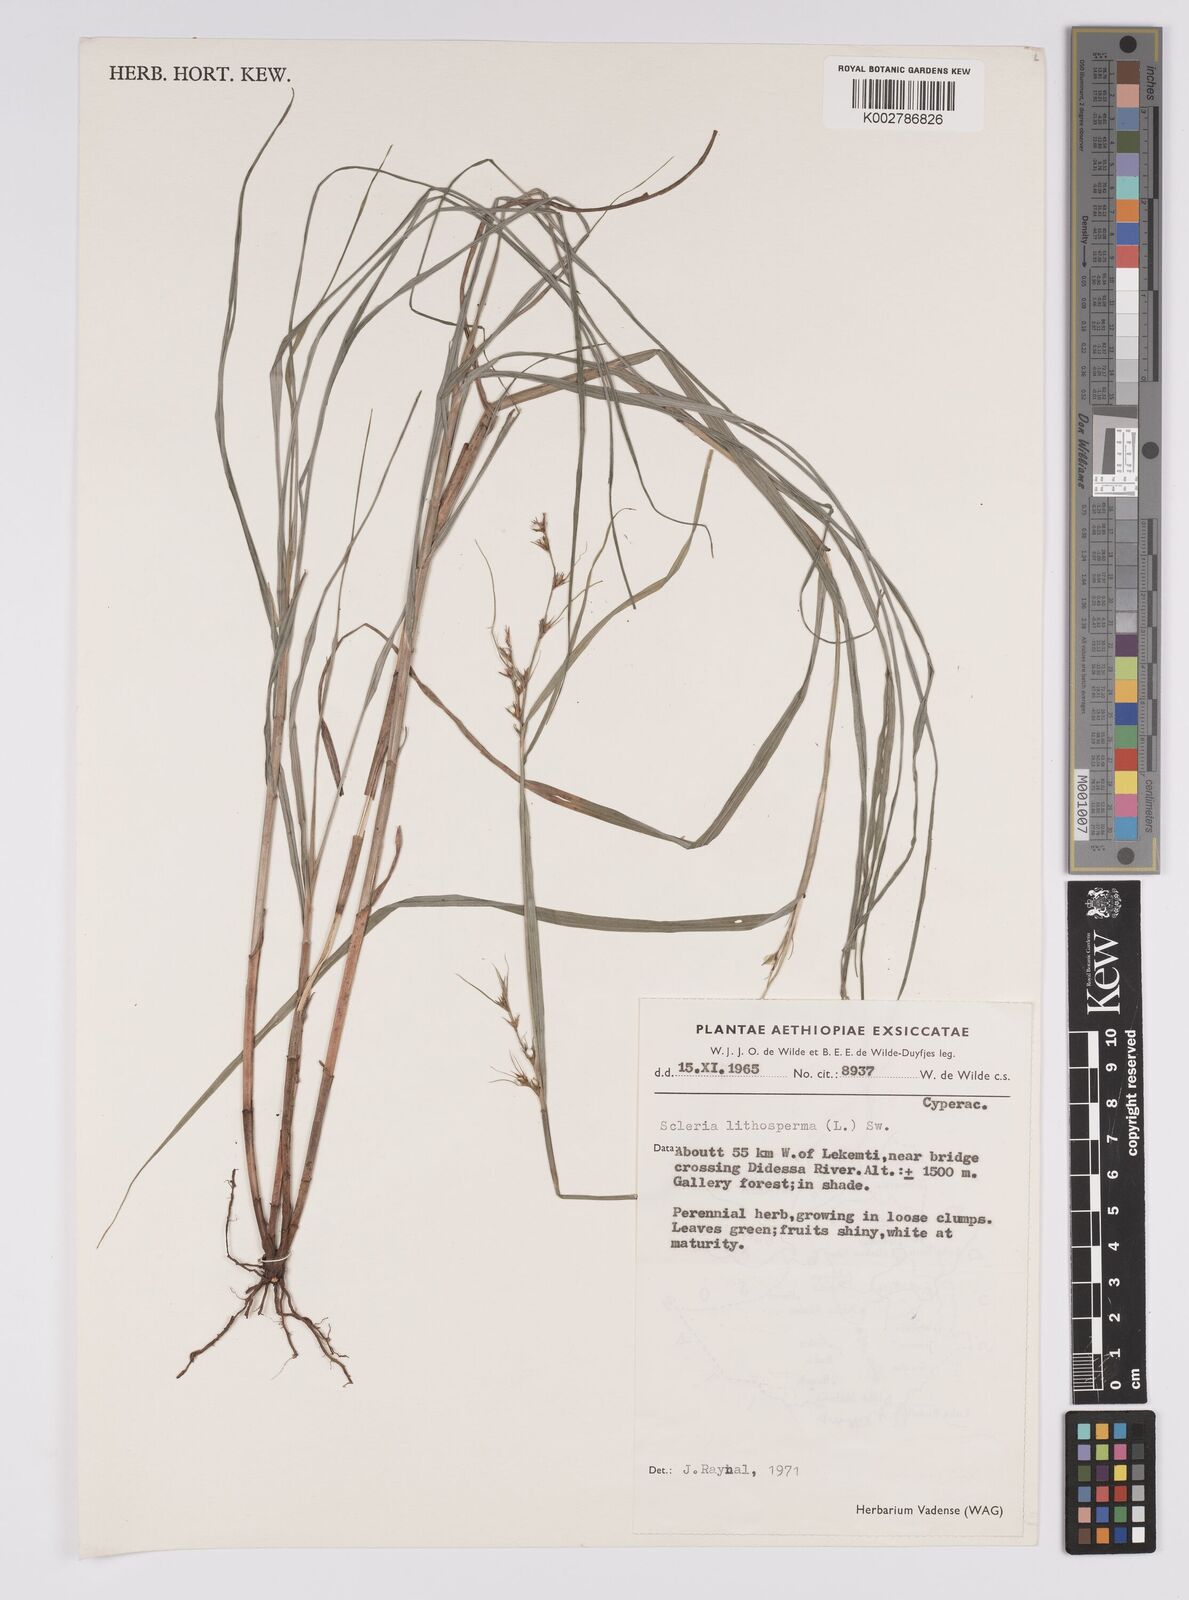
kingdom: Plantae
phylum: Tracheophyta
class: Liliopsida
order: Poales
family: Cyperaceae
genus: Scleria
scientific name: Scleria lithosperma
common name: Florida keys nut-rush
